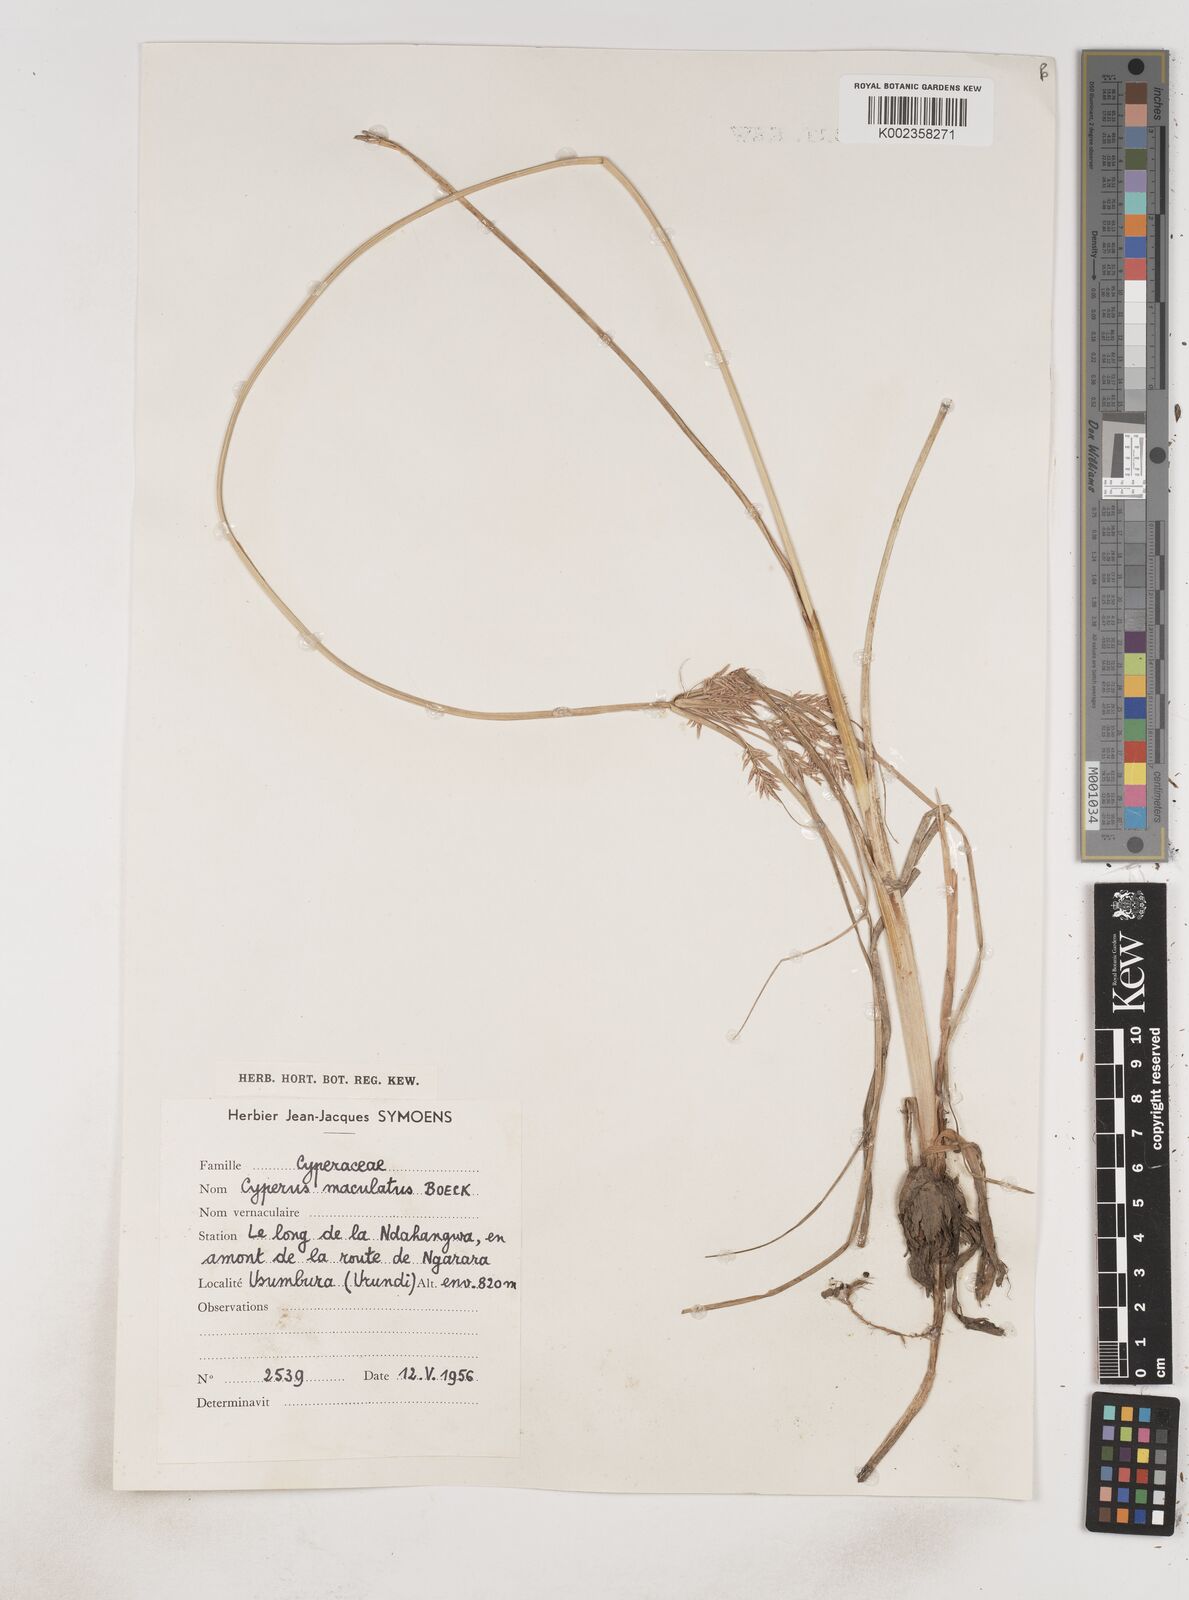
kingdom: Plantae
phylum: Tracheophyta
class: Liliopsida
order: Poales
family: Cyperaceae
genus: Cyperus
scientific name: Cyperus maculatus
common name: Maculated sedge
